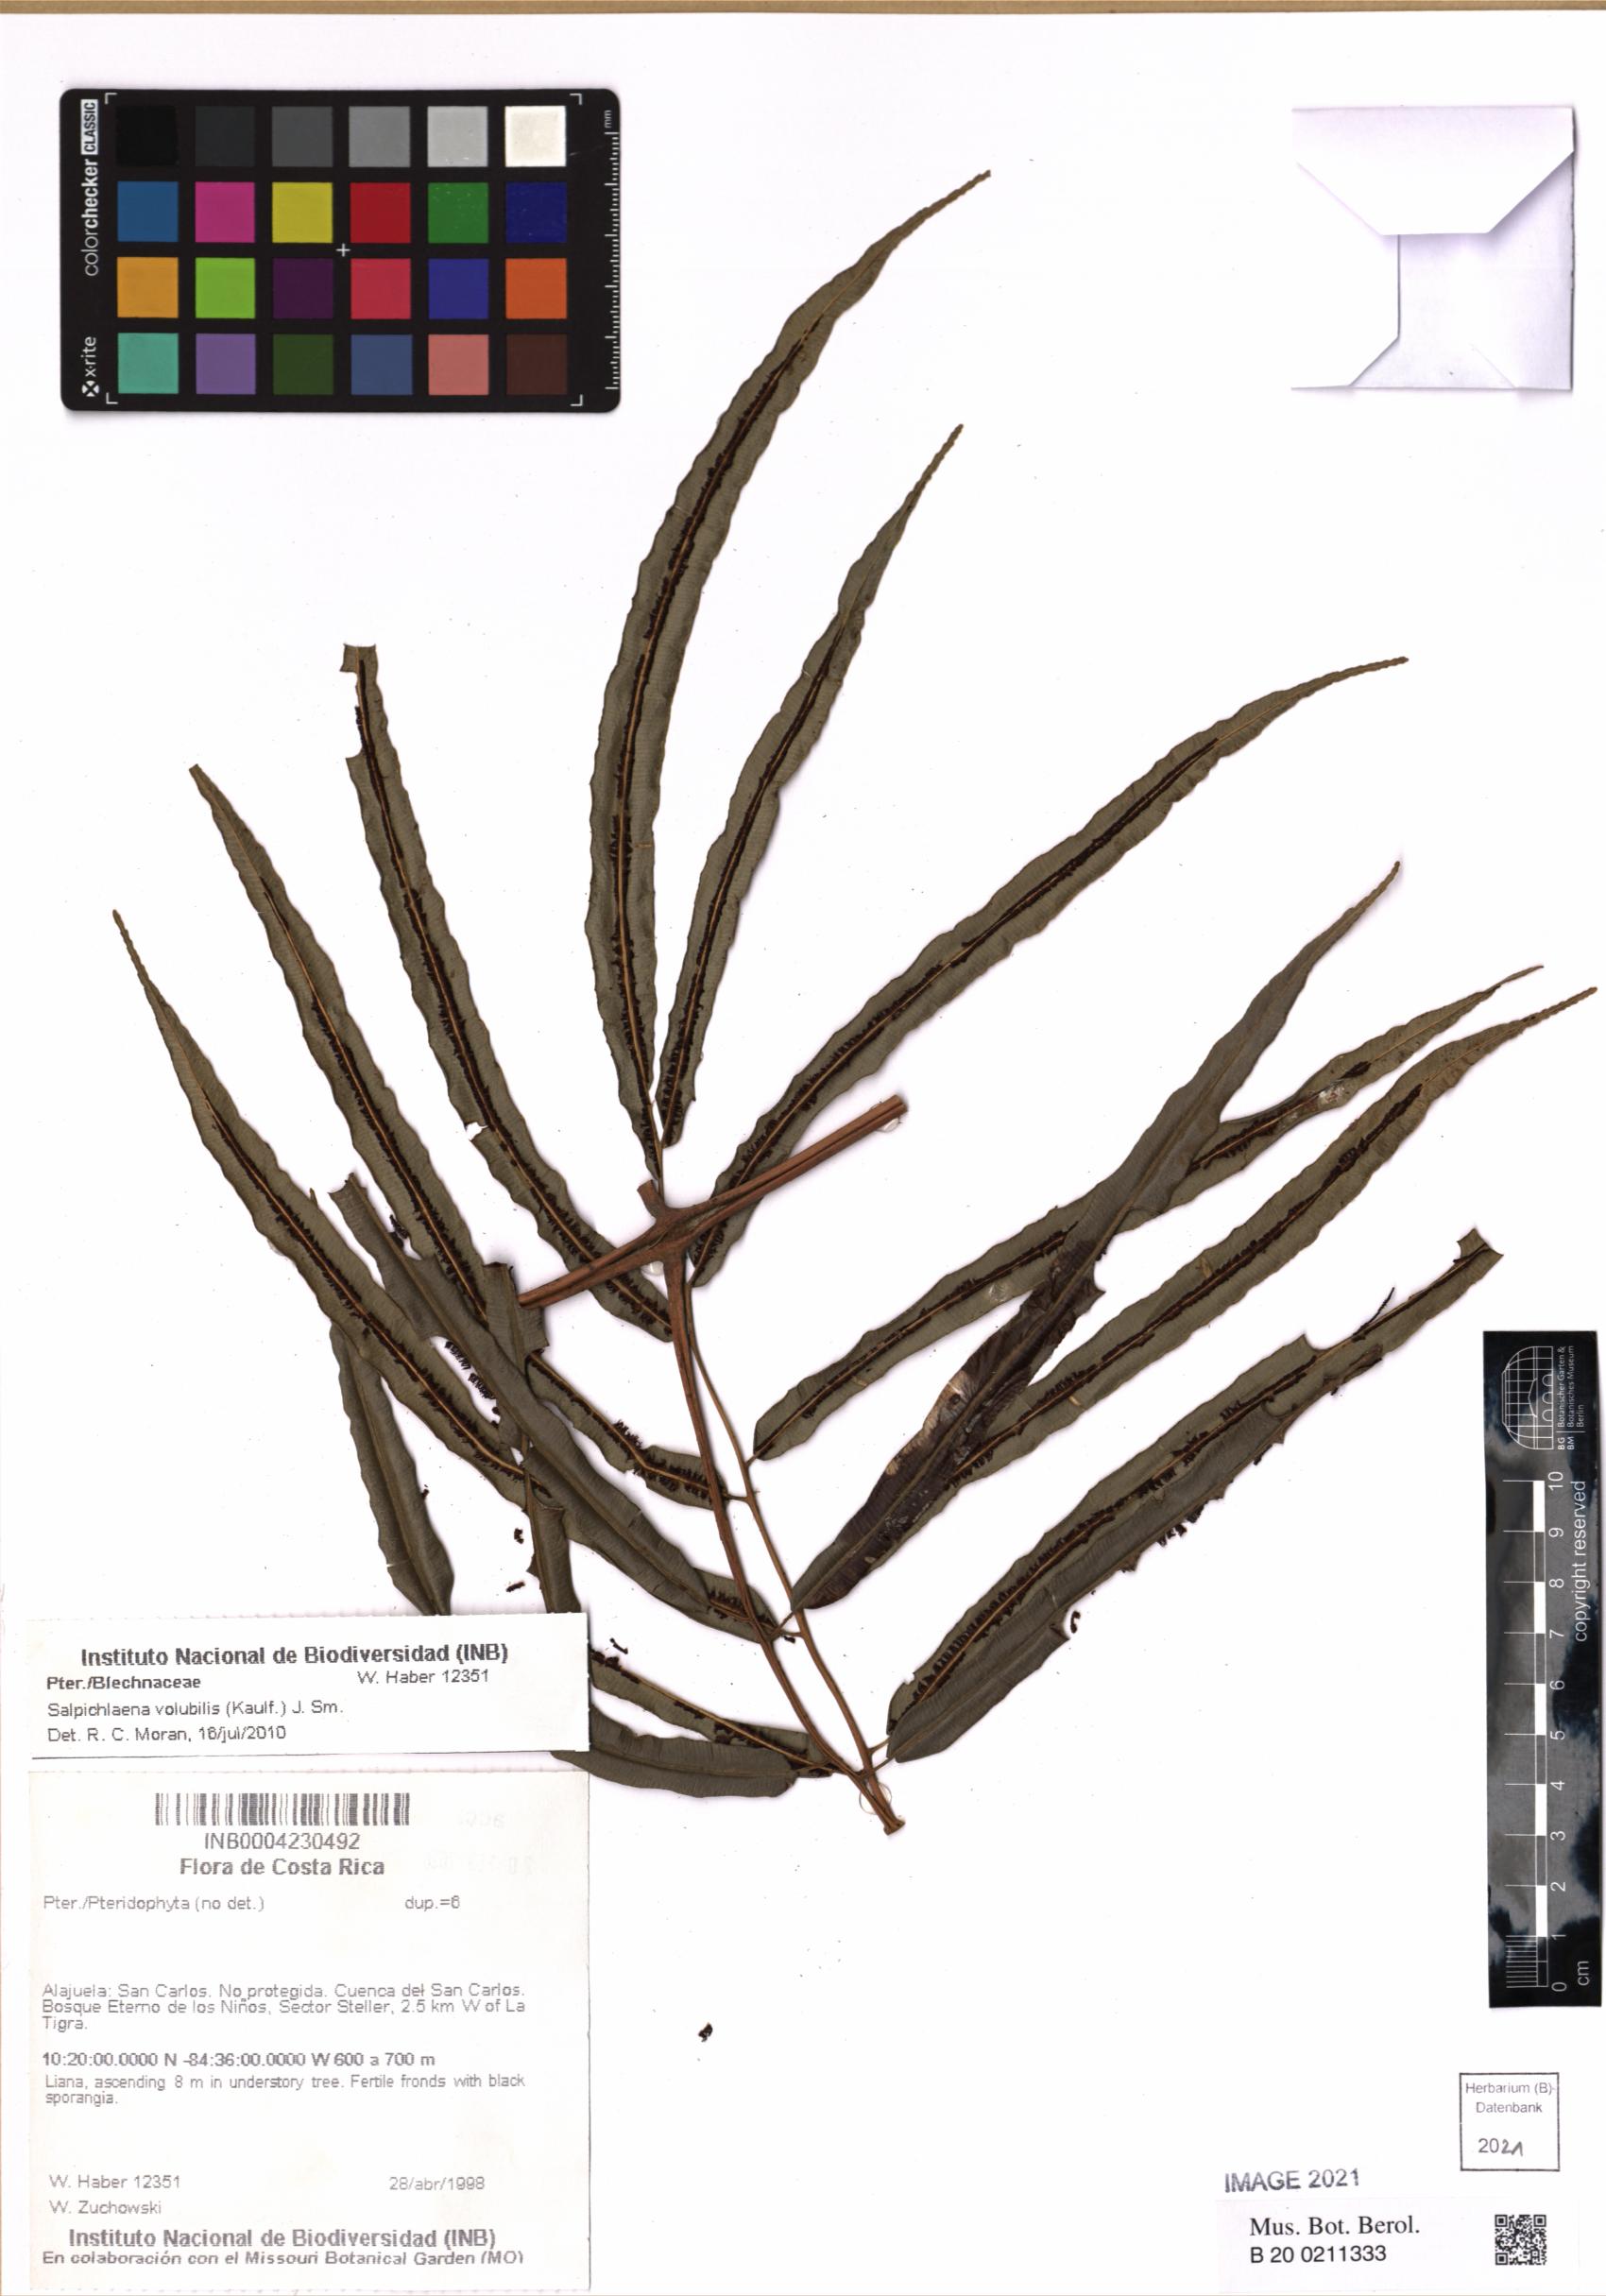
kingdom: Plantae
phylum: Tracheophyta
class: Polypodiopsida
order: Polypodiales
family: Blechnaceae
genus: Salpichlaena
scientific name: Salpichlaena volubilis
